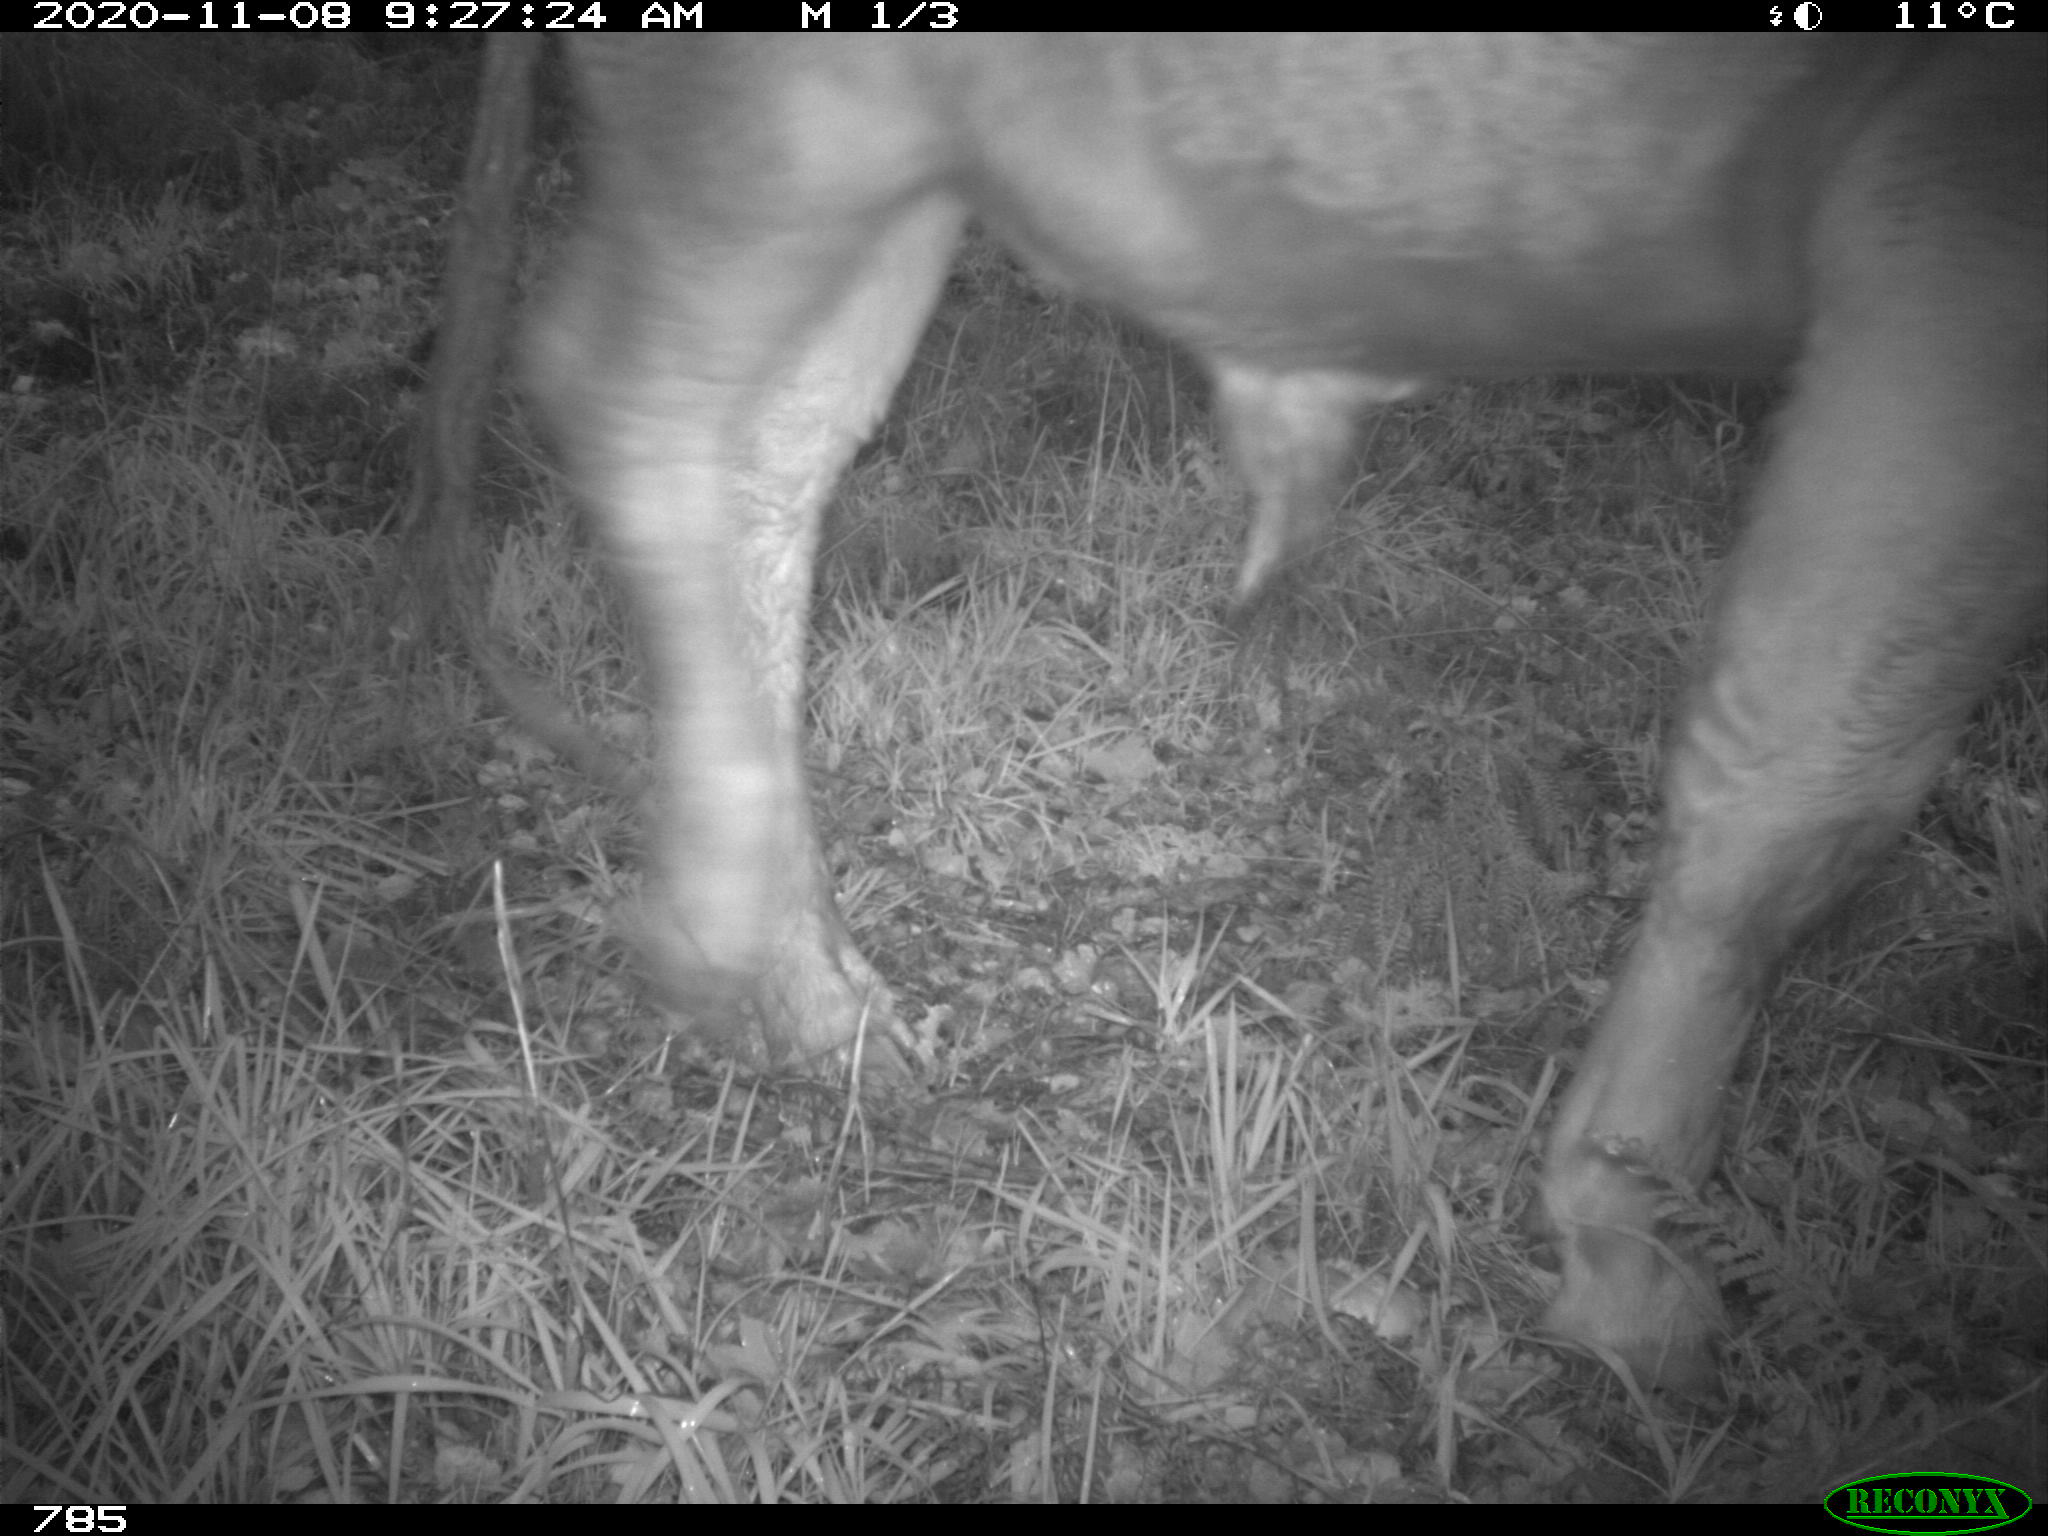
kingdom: Animalia
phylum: Chordata
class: Mammalia
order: Artiodactyla
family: Bovidae
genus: Bos
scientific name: Bos taurus
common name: Domesticated cattle
